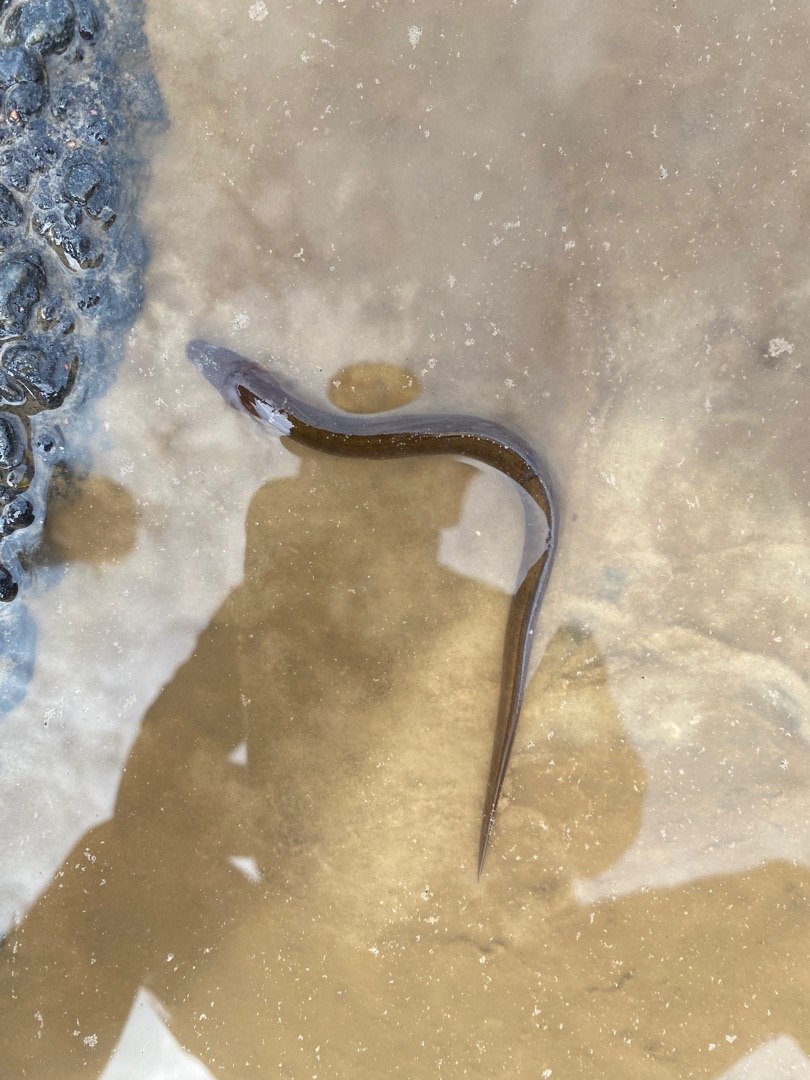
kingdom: Animalia
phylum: Chordata
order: Anguilliformes
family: Anguillidae
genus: Anguilla
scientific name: Anguilla anguilla
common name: Europæisk ål
